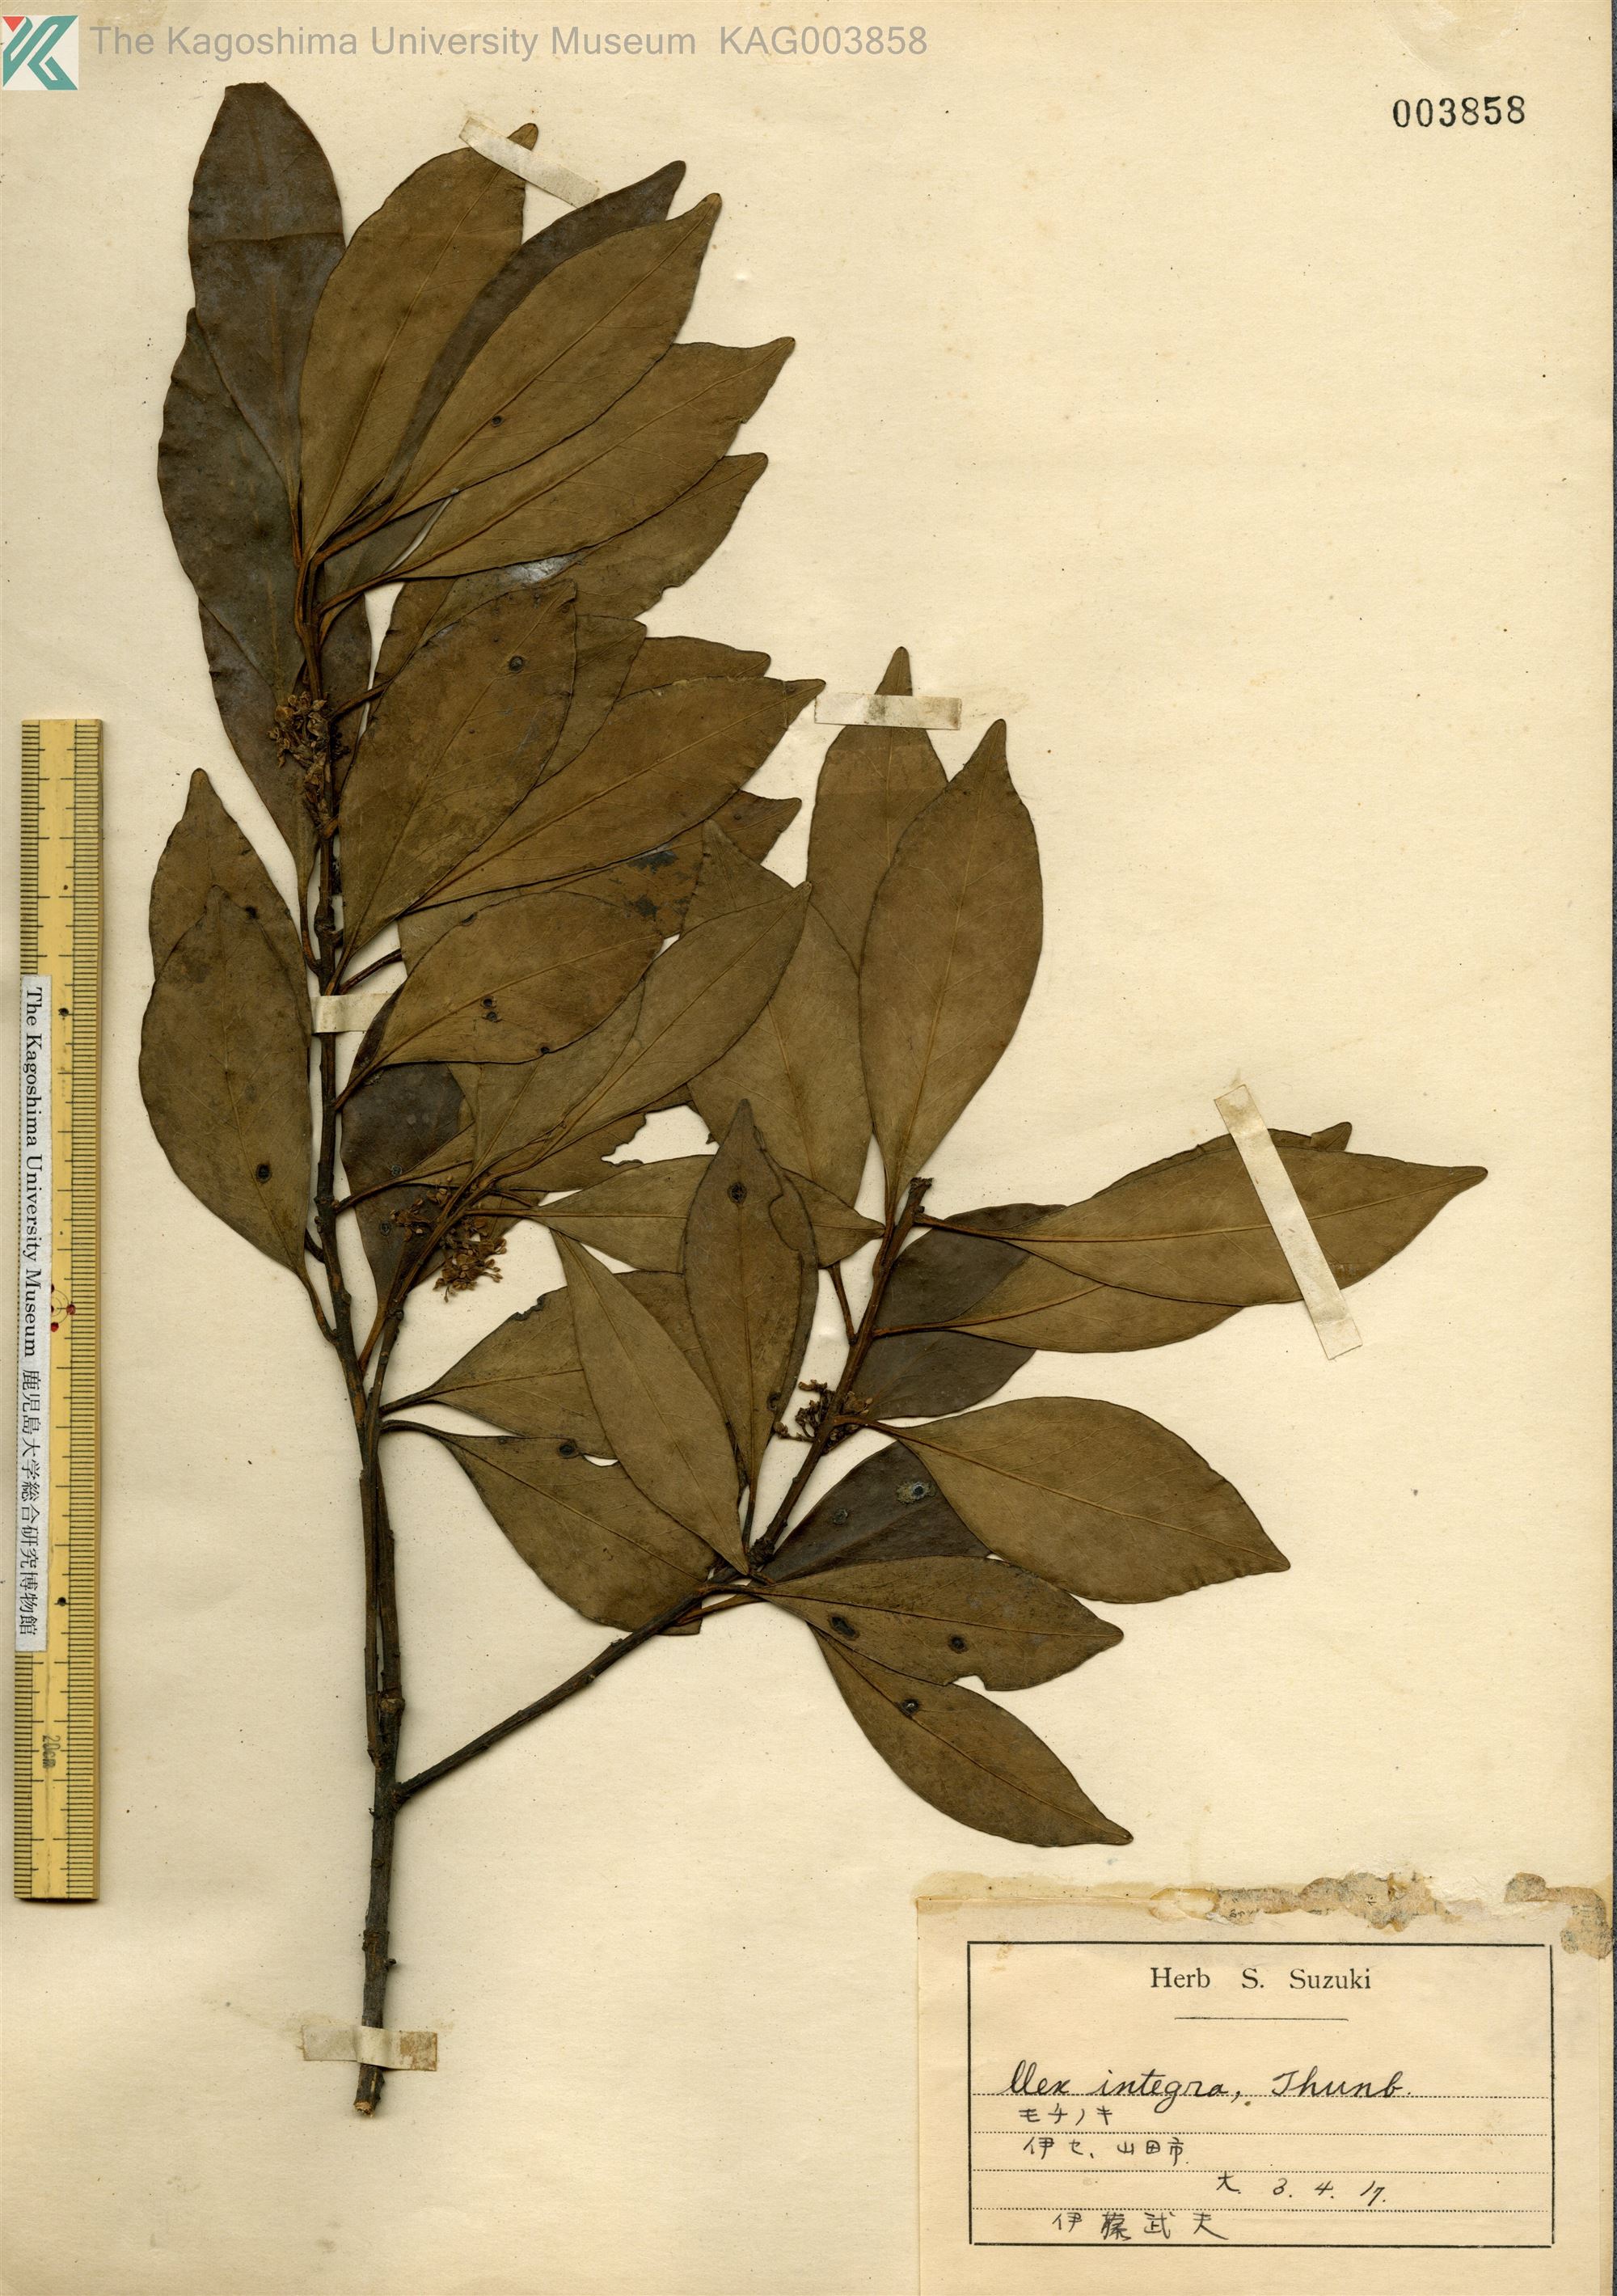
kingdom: Plantae
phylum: Tracheophyta
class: Magnoliopsida
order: Aquifoliales
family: Aquifoliaceae
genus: Ilex
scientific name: Ilex integra
